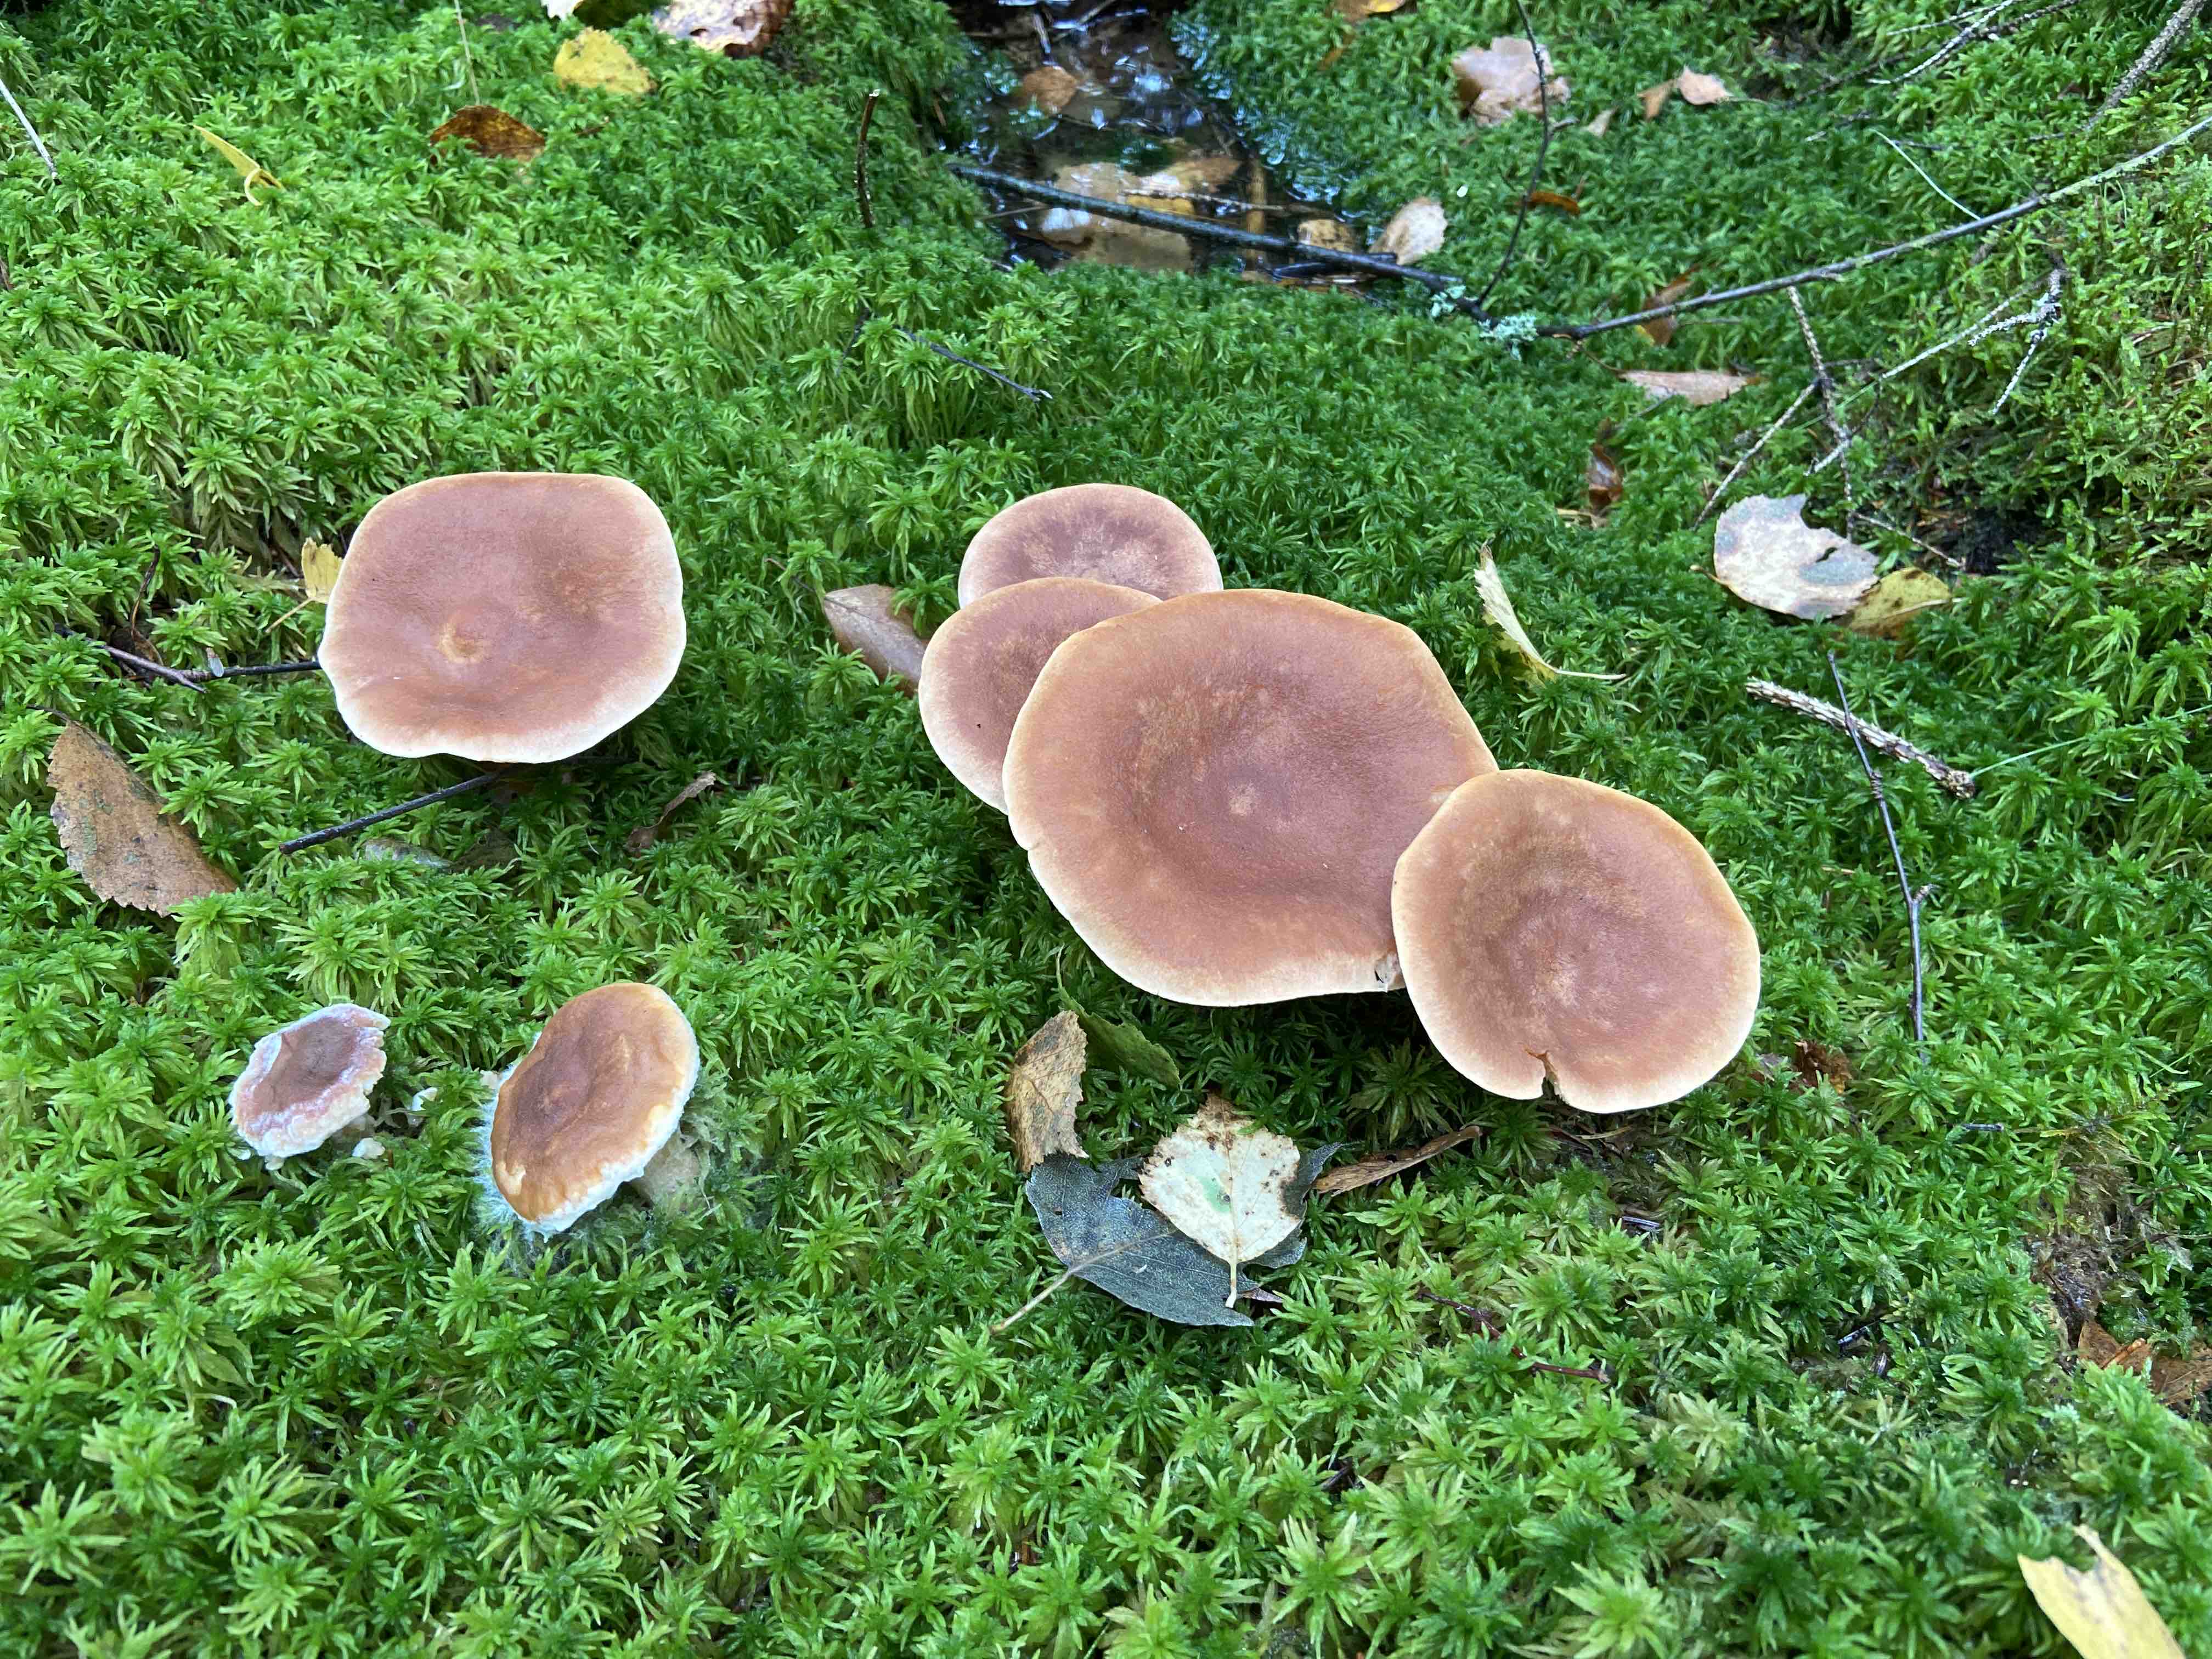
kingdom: Fungi
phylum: Basidiomycota
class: Agaricomycetes
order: Russulales
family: Russulaceae
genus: Lactarius
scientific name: Lactarius helvus
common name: mose-mælkehat
